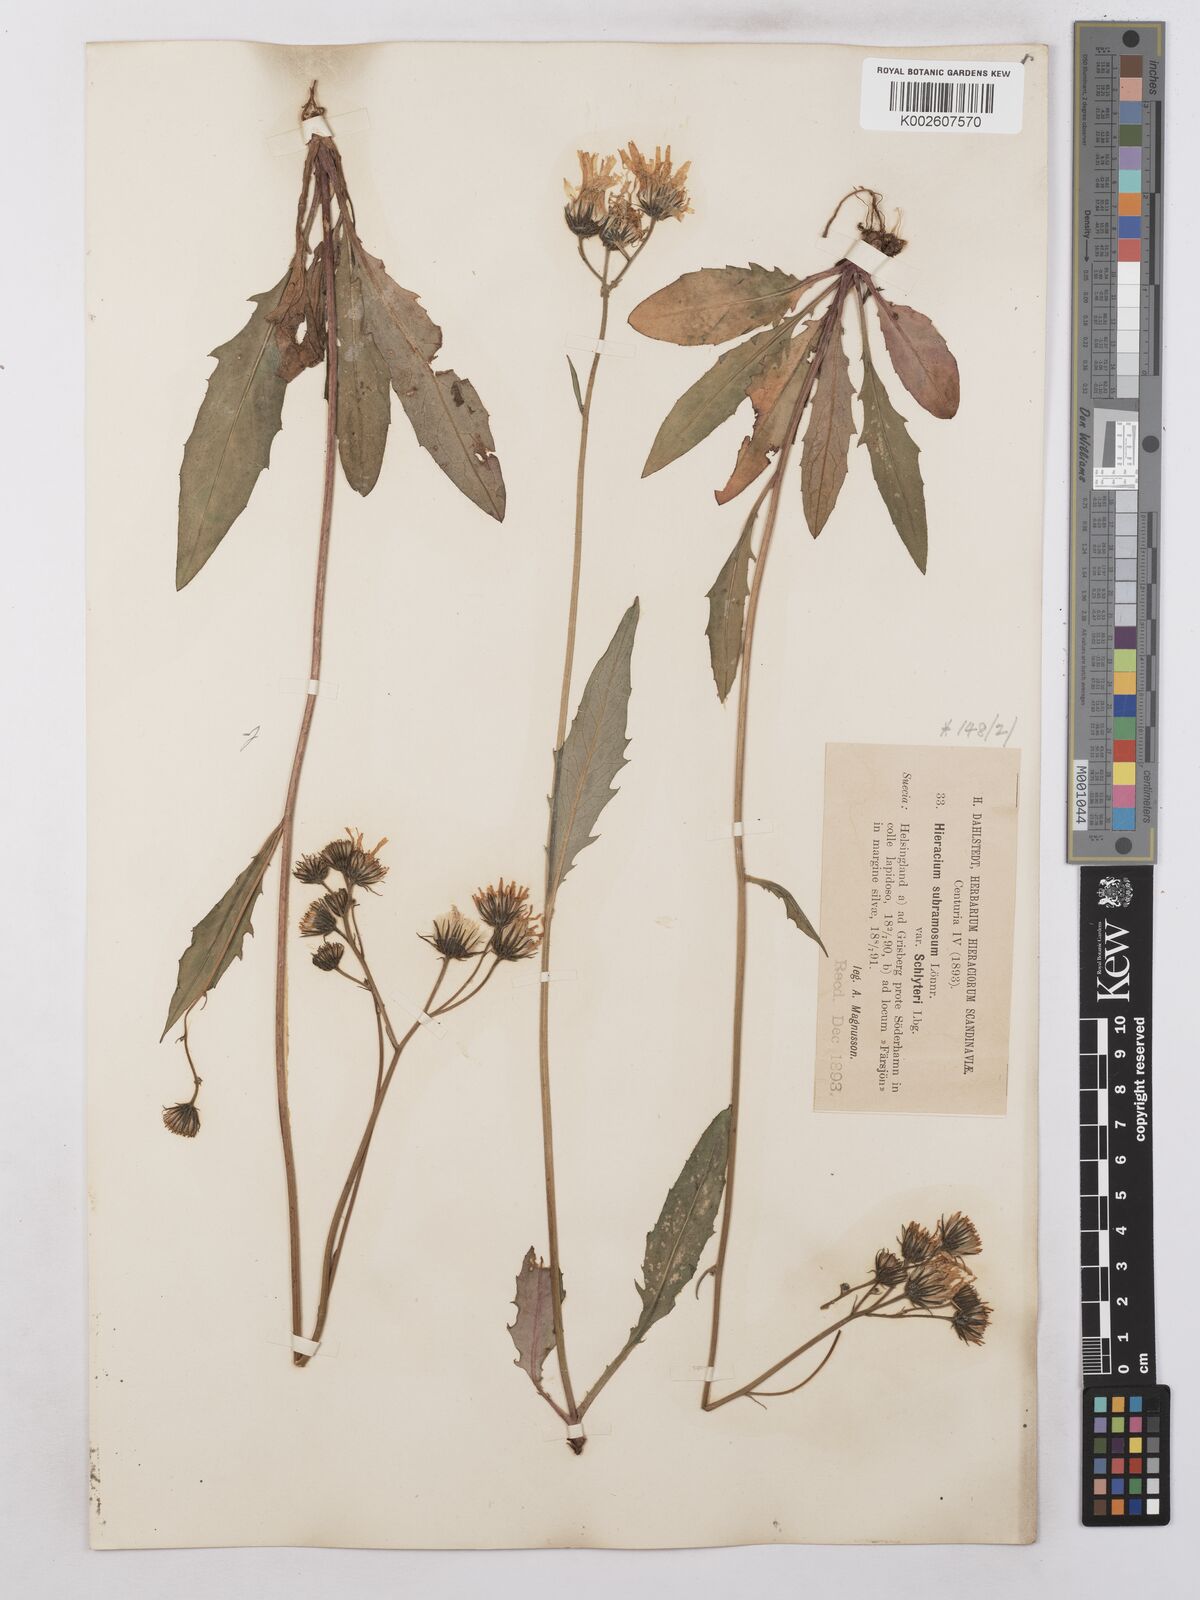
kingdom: Plantae
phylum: Tracheophyta
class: Magnoliopsida
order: Asterales
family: Asteraceae
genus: Hieracium
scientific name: Hieracium subramosum
